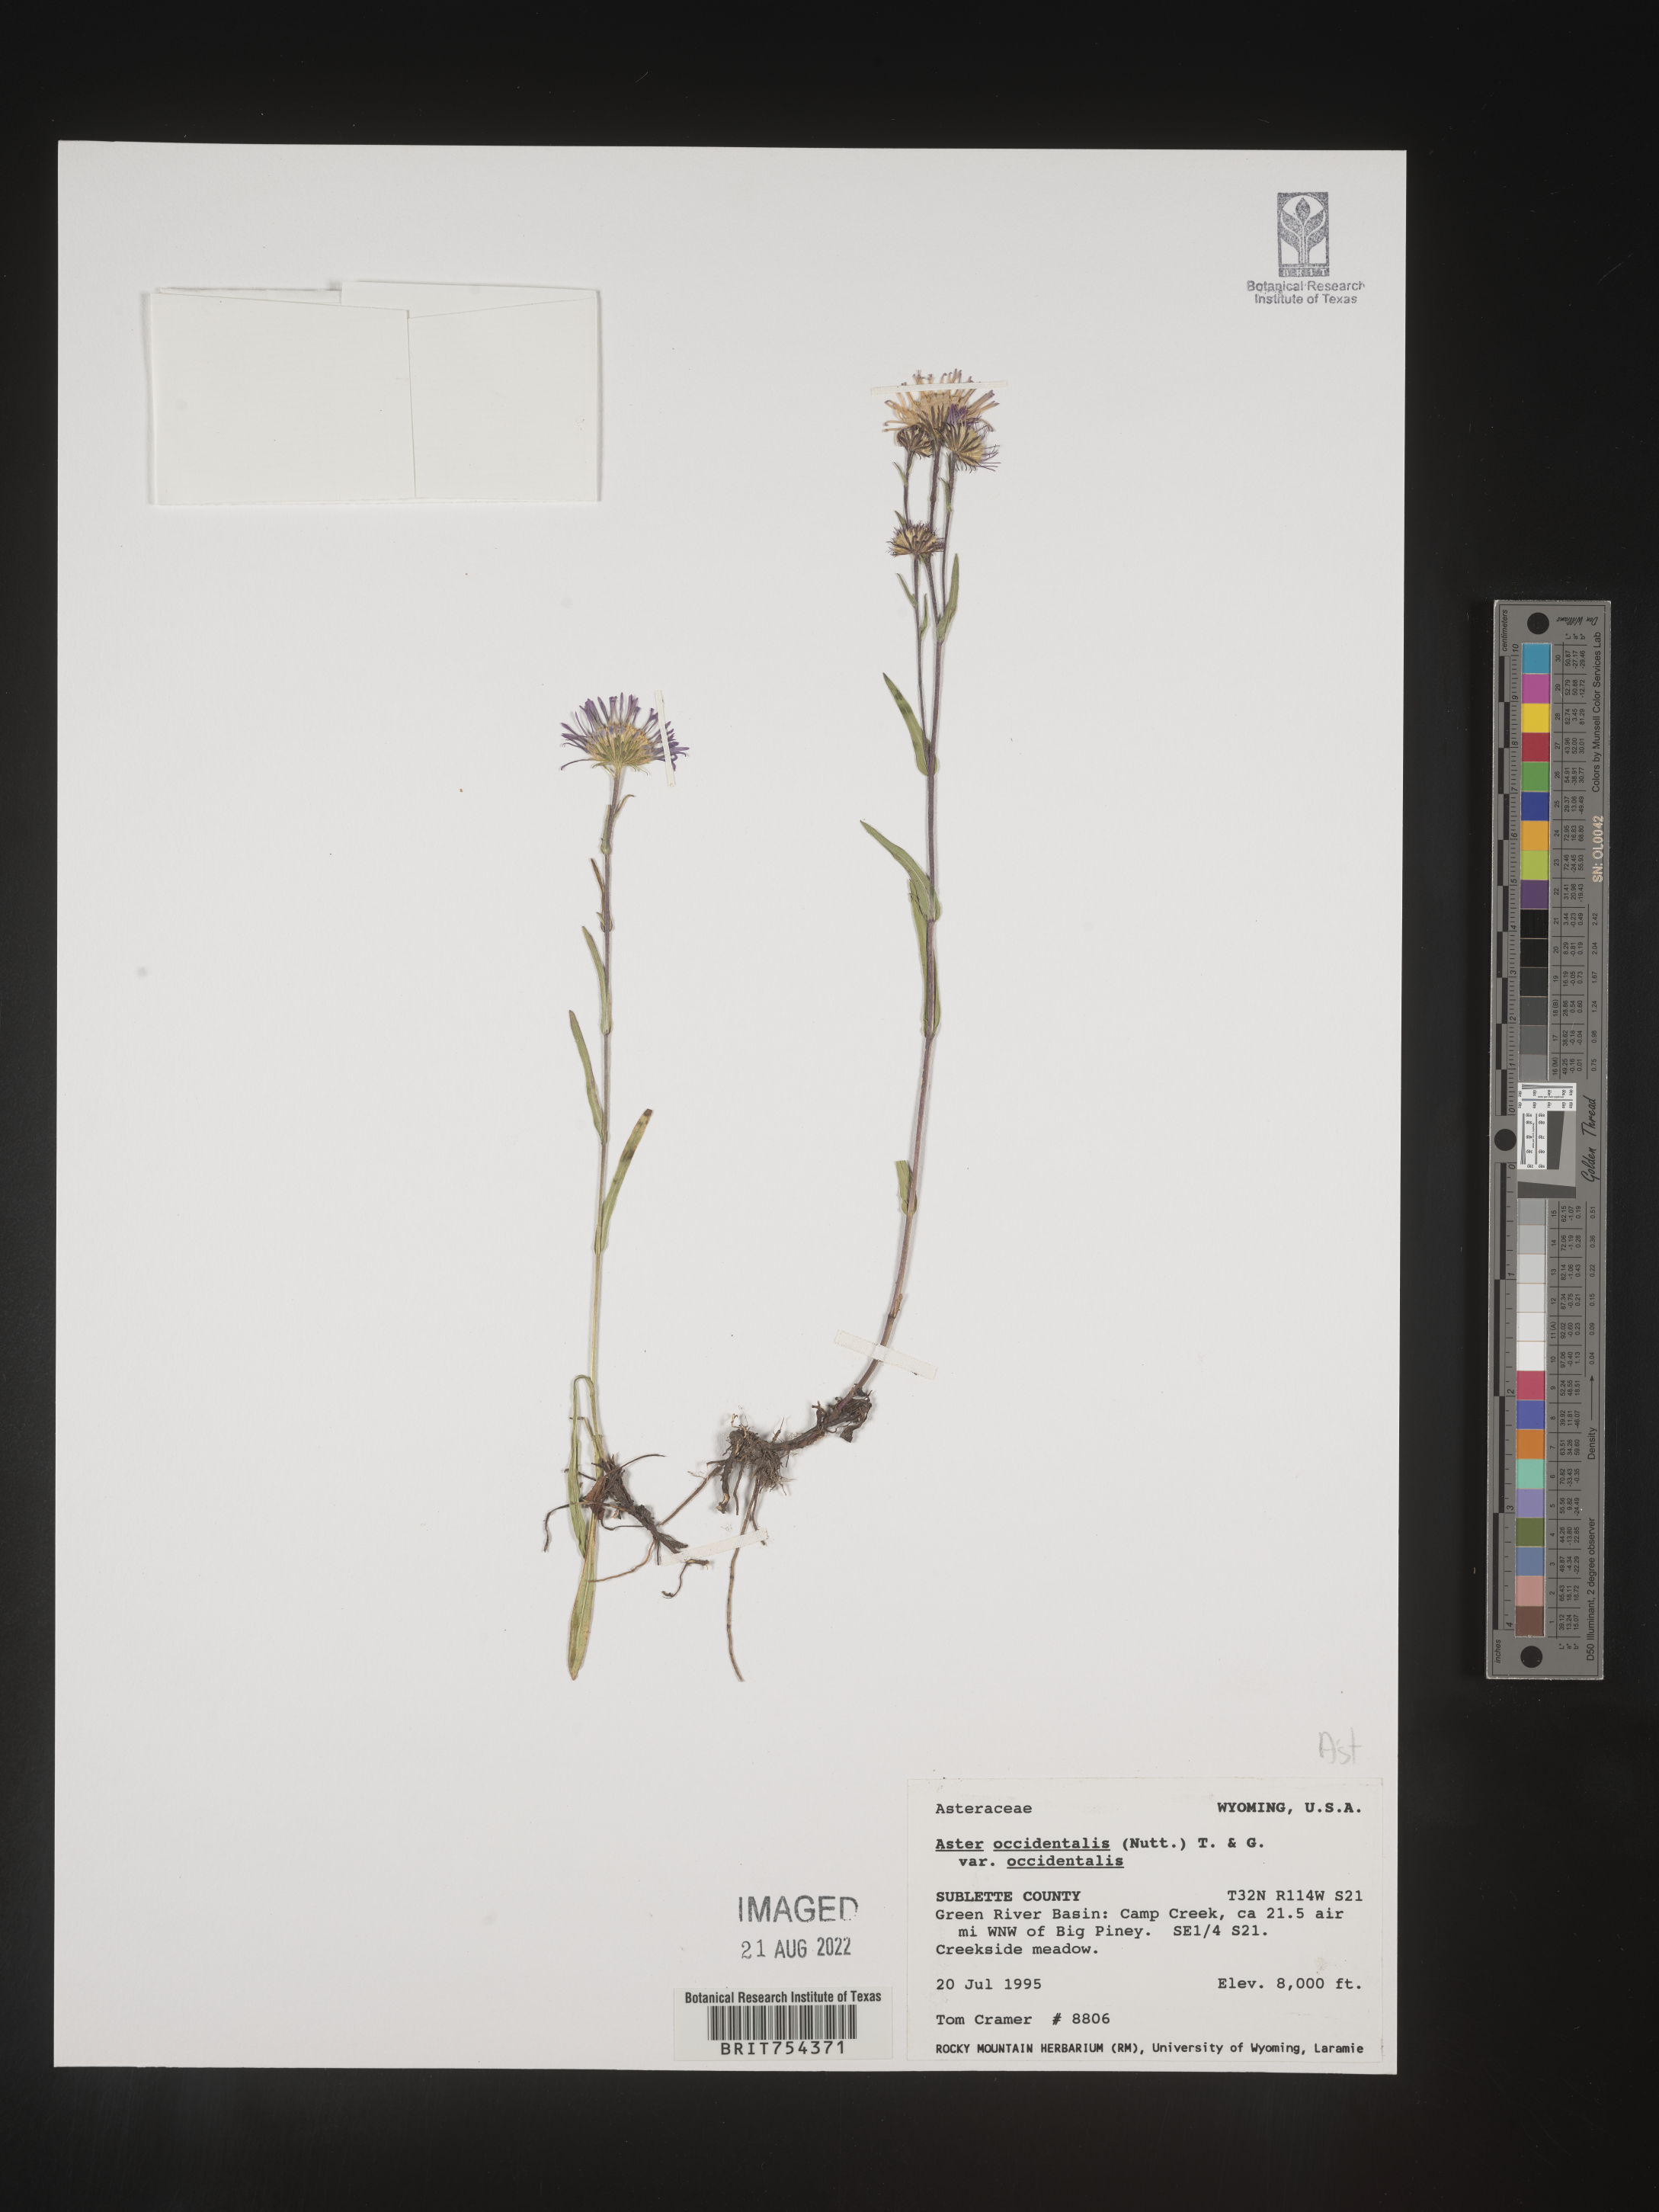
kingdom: Plantae
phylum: Tracheophyta
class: Magnoliopsida
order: Asterales
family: Asteraceae
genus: Symphyotrichum
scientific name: Symphyotrichum spathulatum
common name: Western mountain aster
